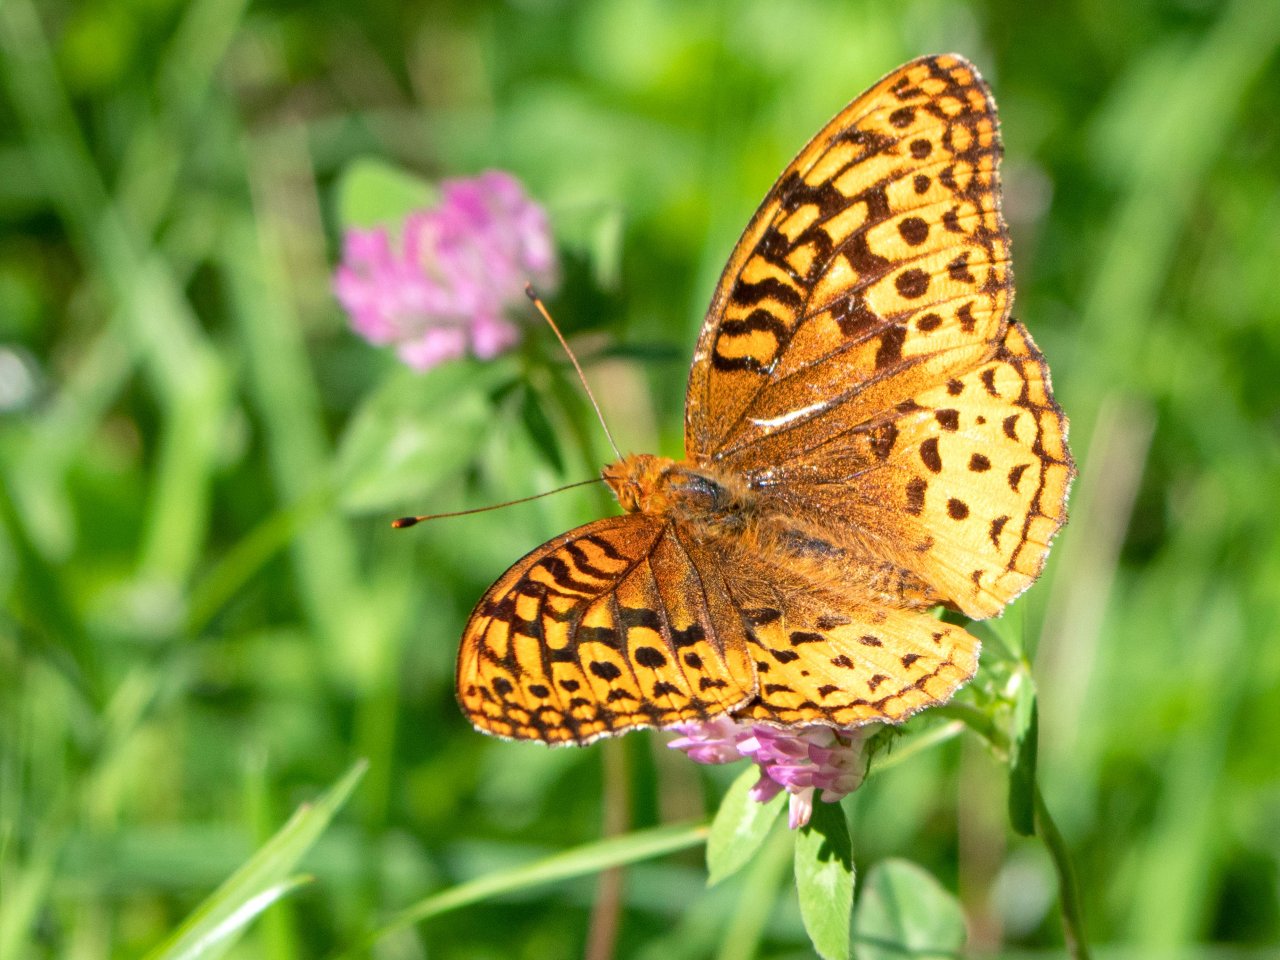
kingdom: Animalia
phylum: Arthropoda
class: Insecta
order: Lepidoptera
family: Nymphalidae
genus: Speyeria
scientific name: Speyeria cybele
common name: Great Spangled Fritillary
